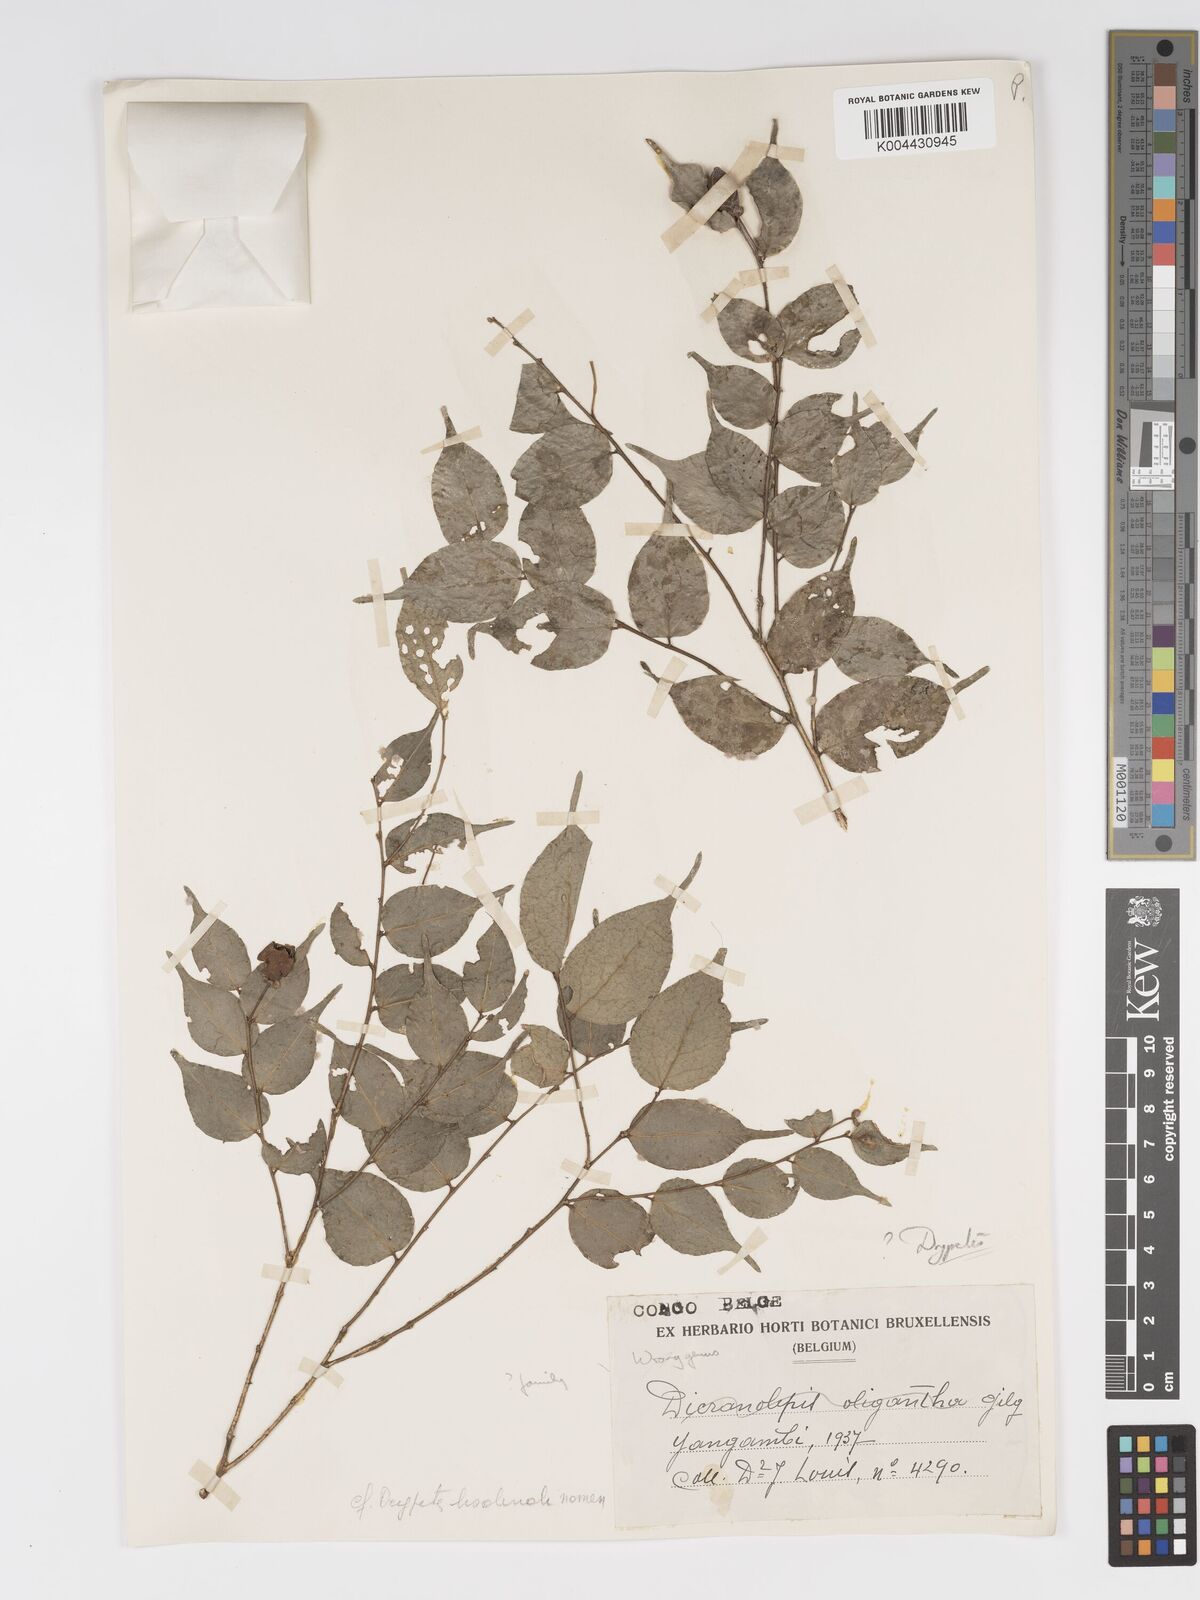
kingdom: Plantae
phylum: Tracheophyta
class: Magnoliopsida
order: Malpighiales
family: Putranjivaceae
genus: Drypetes
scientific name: Drypetes
